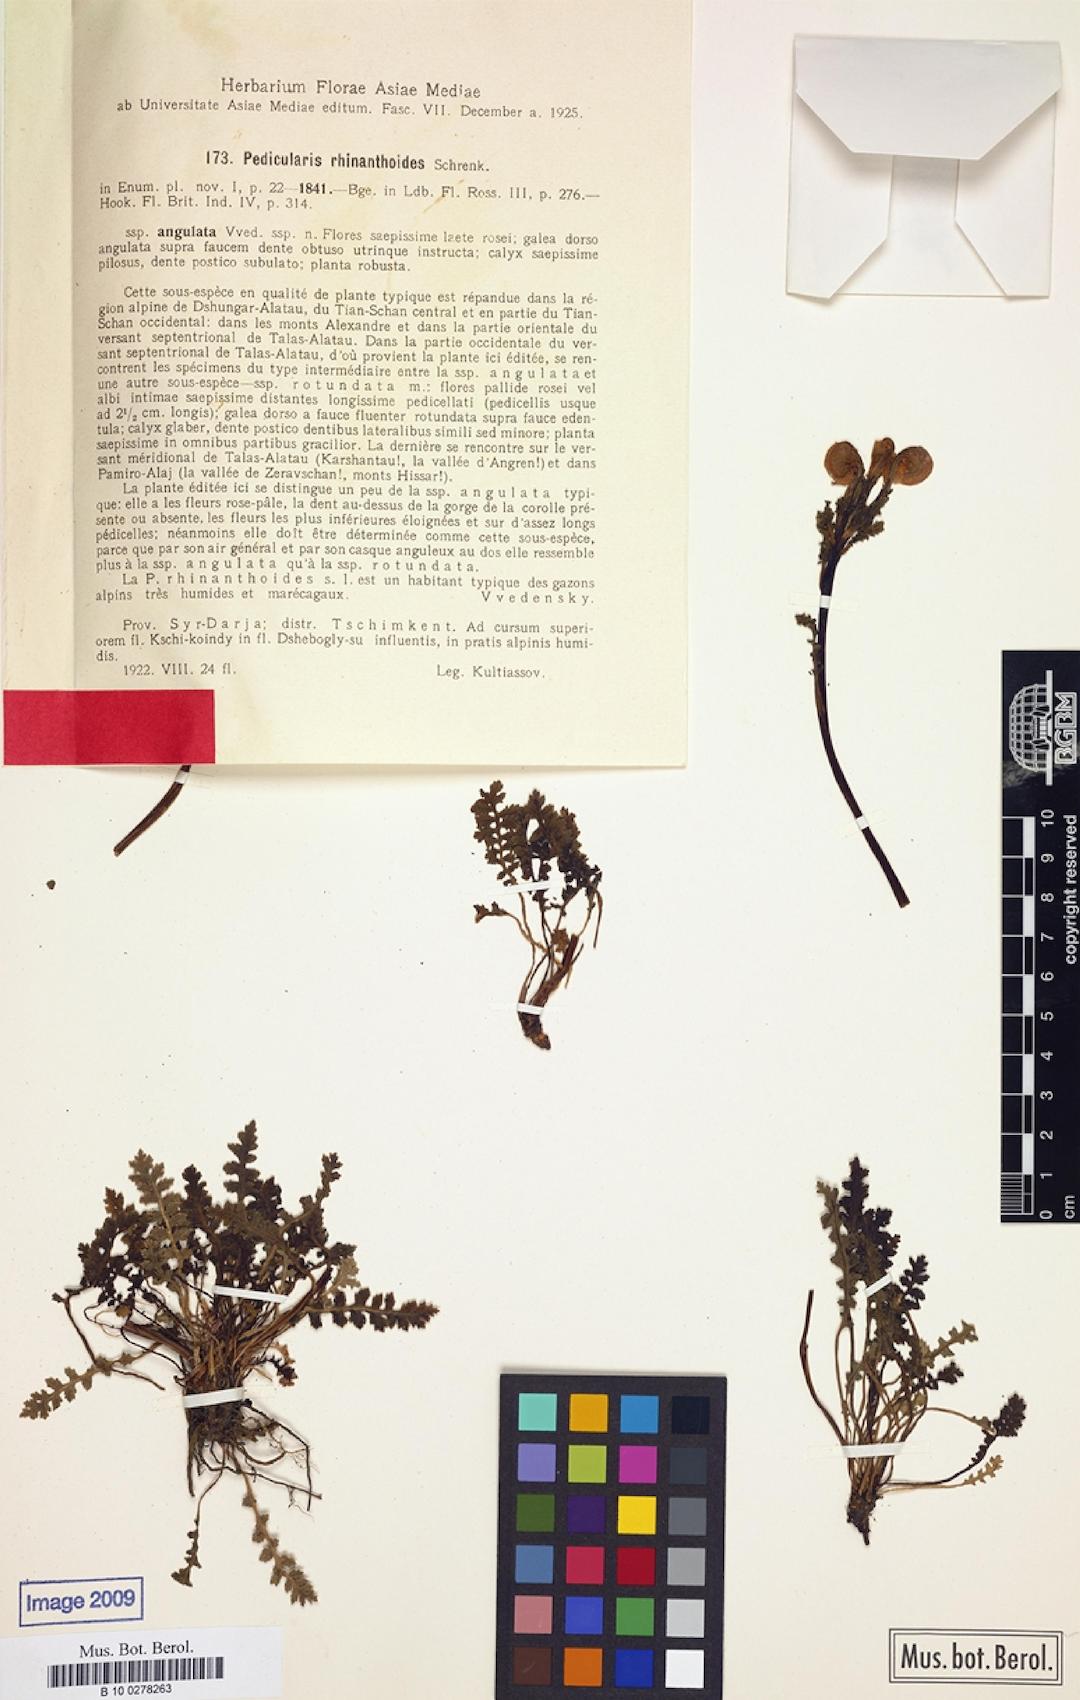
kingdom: Plantae
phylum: Tracheophyta
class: Magnoliopsida
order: Lamiales
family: Orobanchaceae
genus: Pedicularis
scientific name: Pedicularis rhinanthoides
